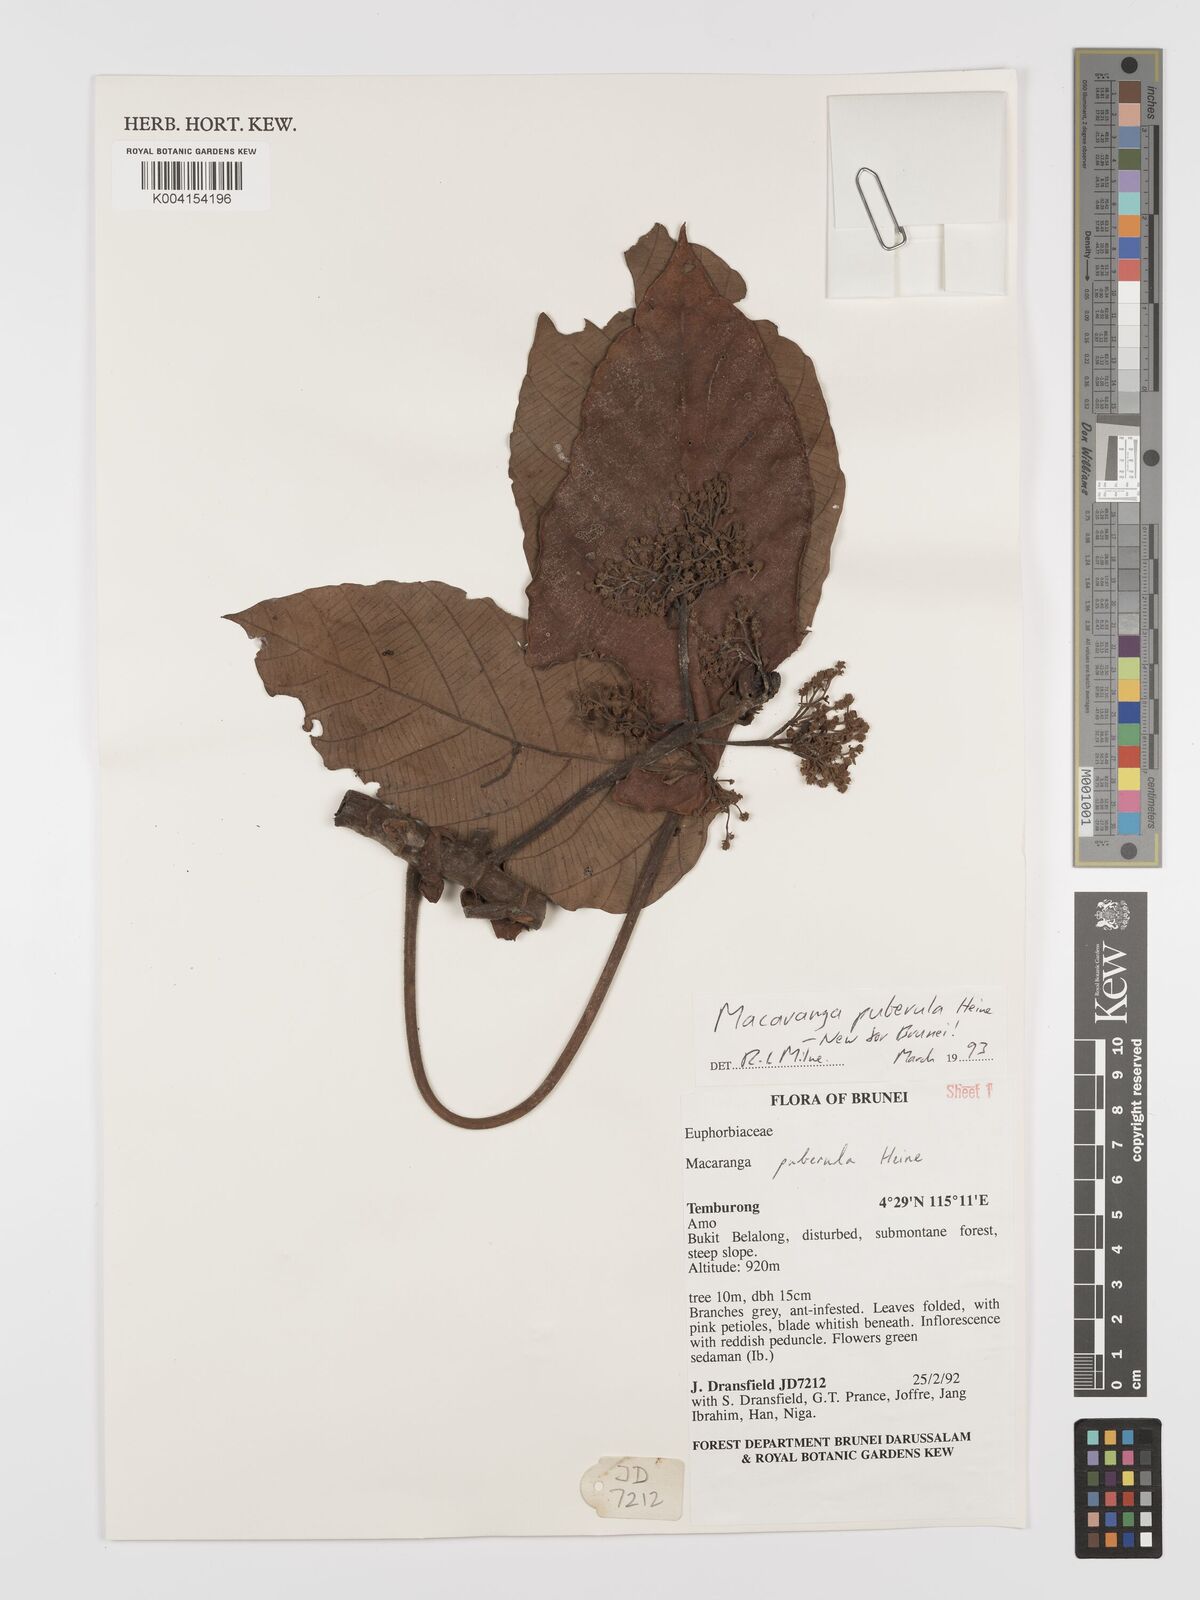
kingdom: Plantae
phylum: Tracheophyta
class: Magnoliopsida
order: Malpighiales
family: Euphorbiaceae
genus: Macaranga
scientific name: Macaranga puberula
